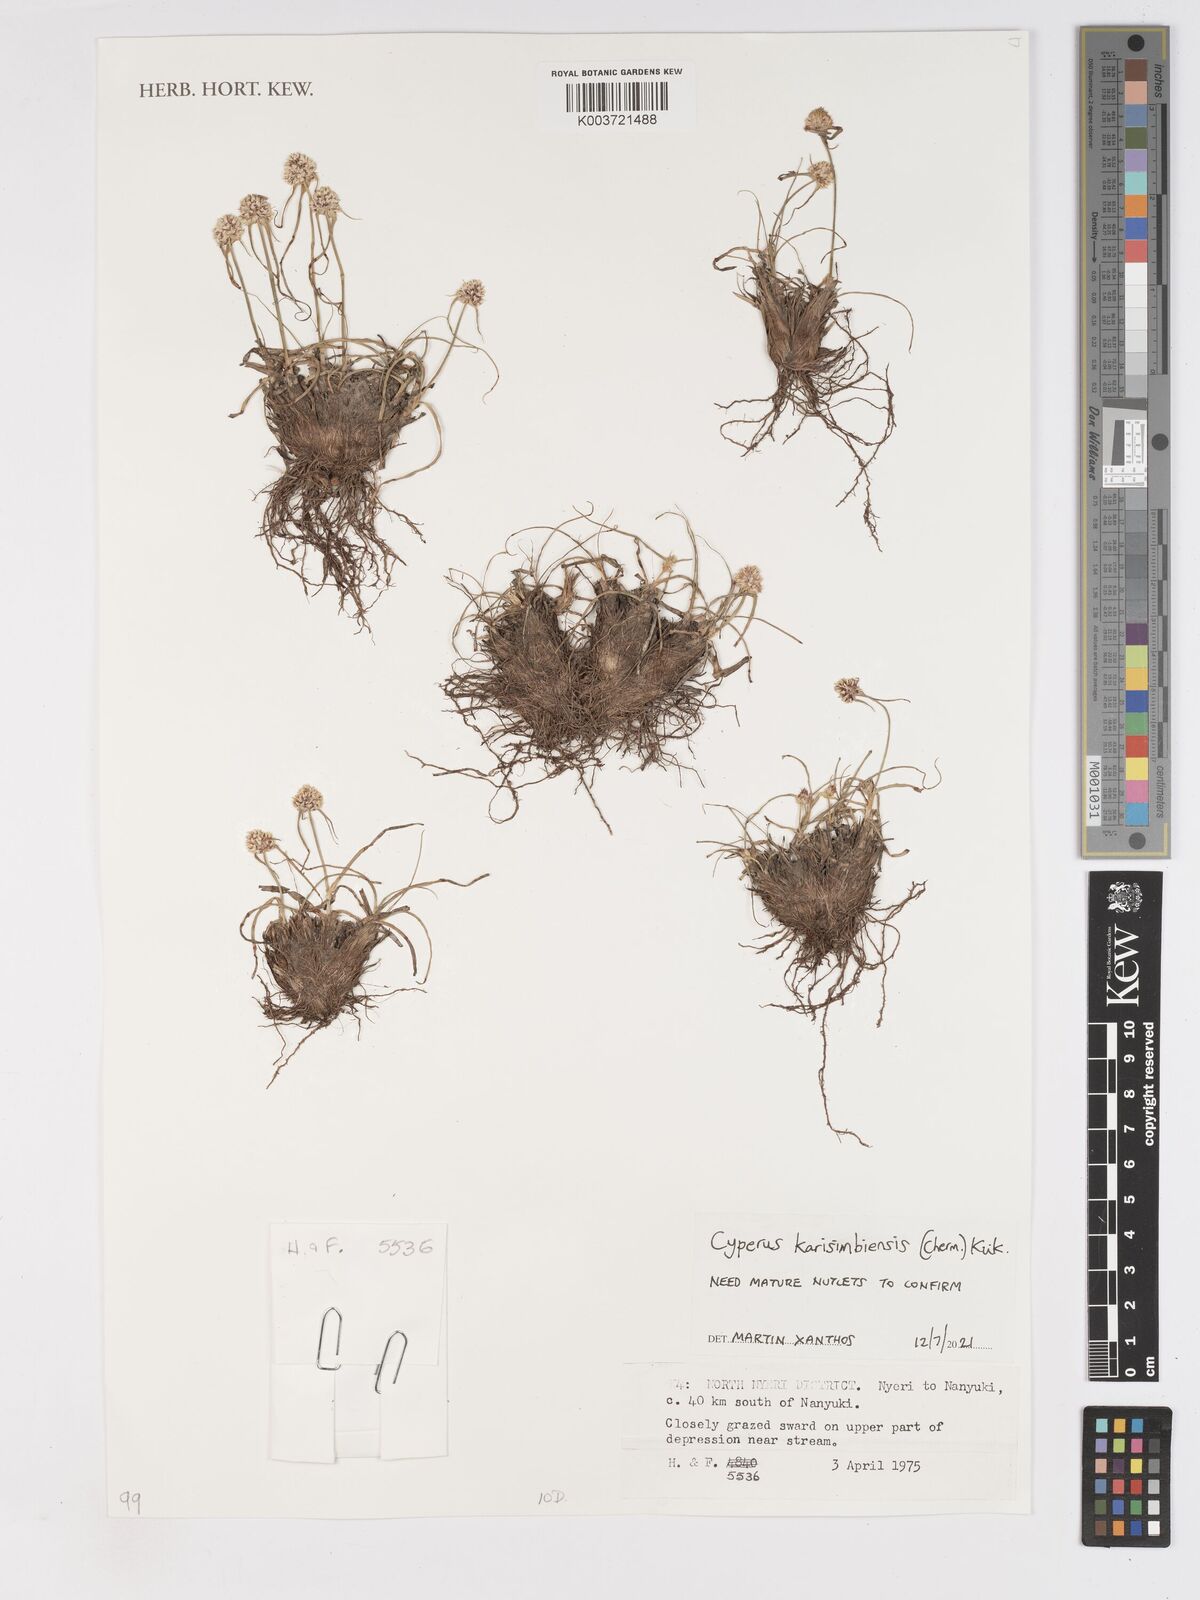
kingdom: Plantae
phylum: Tracheophyta
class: Liliopsida
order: Poales
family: Cyperaceae
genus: Cyperus
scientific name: Cyperus karisimbiensis
